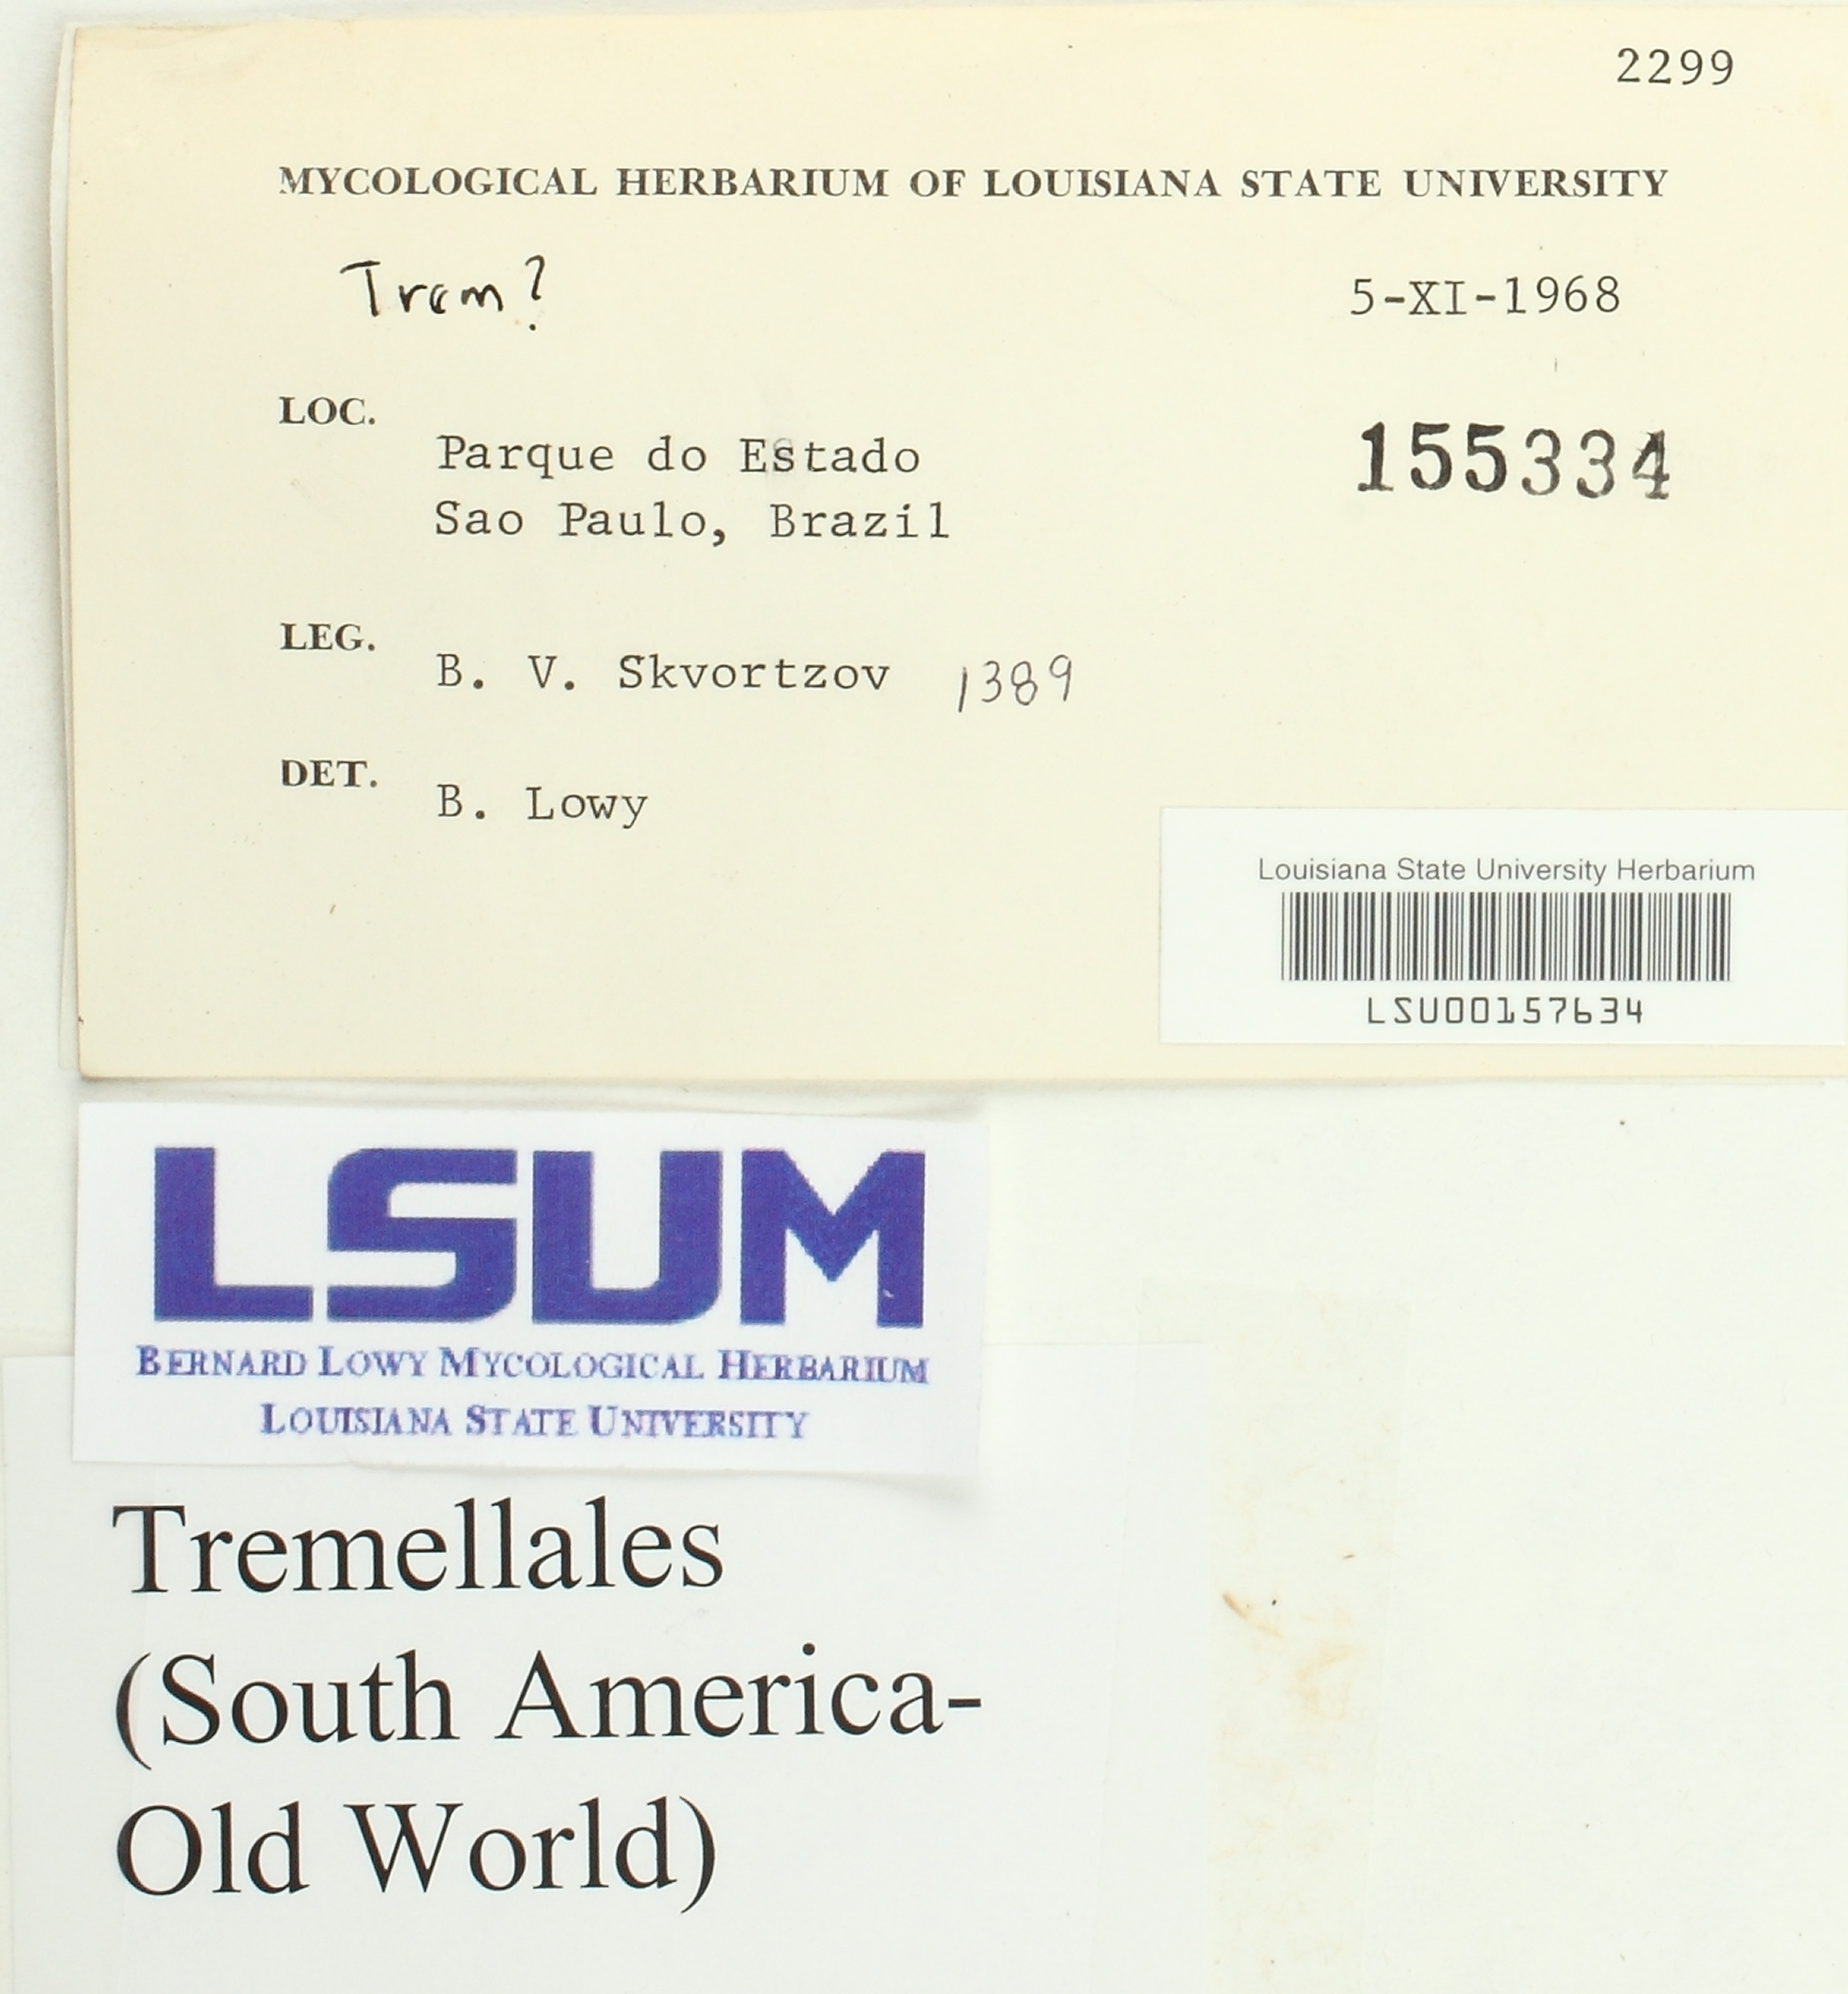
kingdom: Fungi
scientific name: Fungi
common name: Fungi
